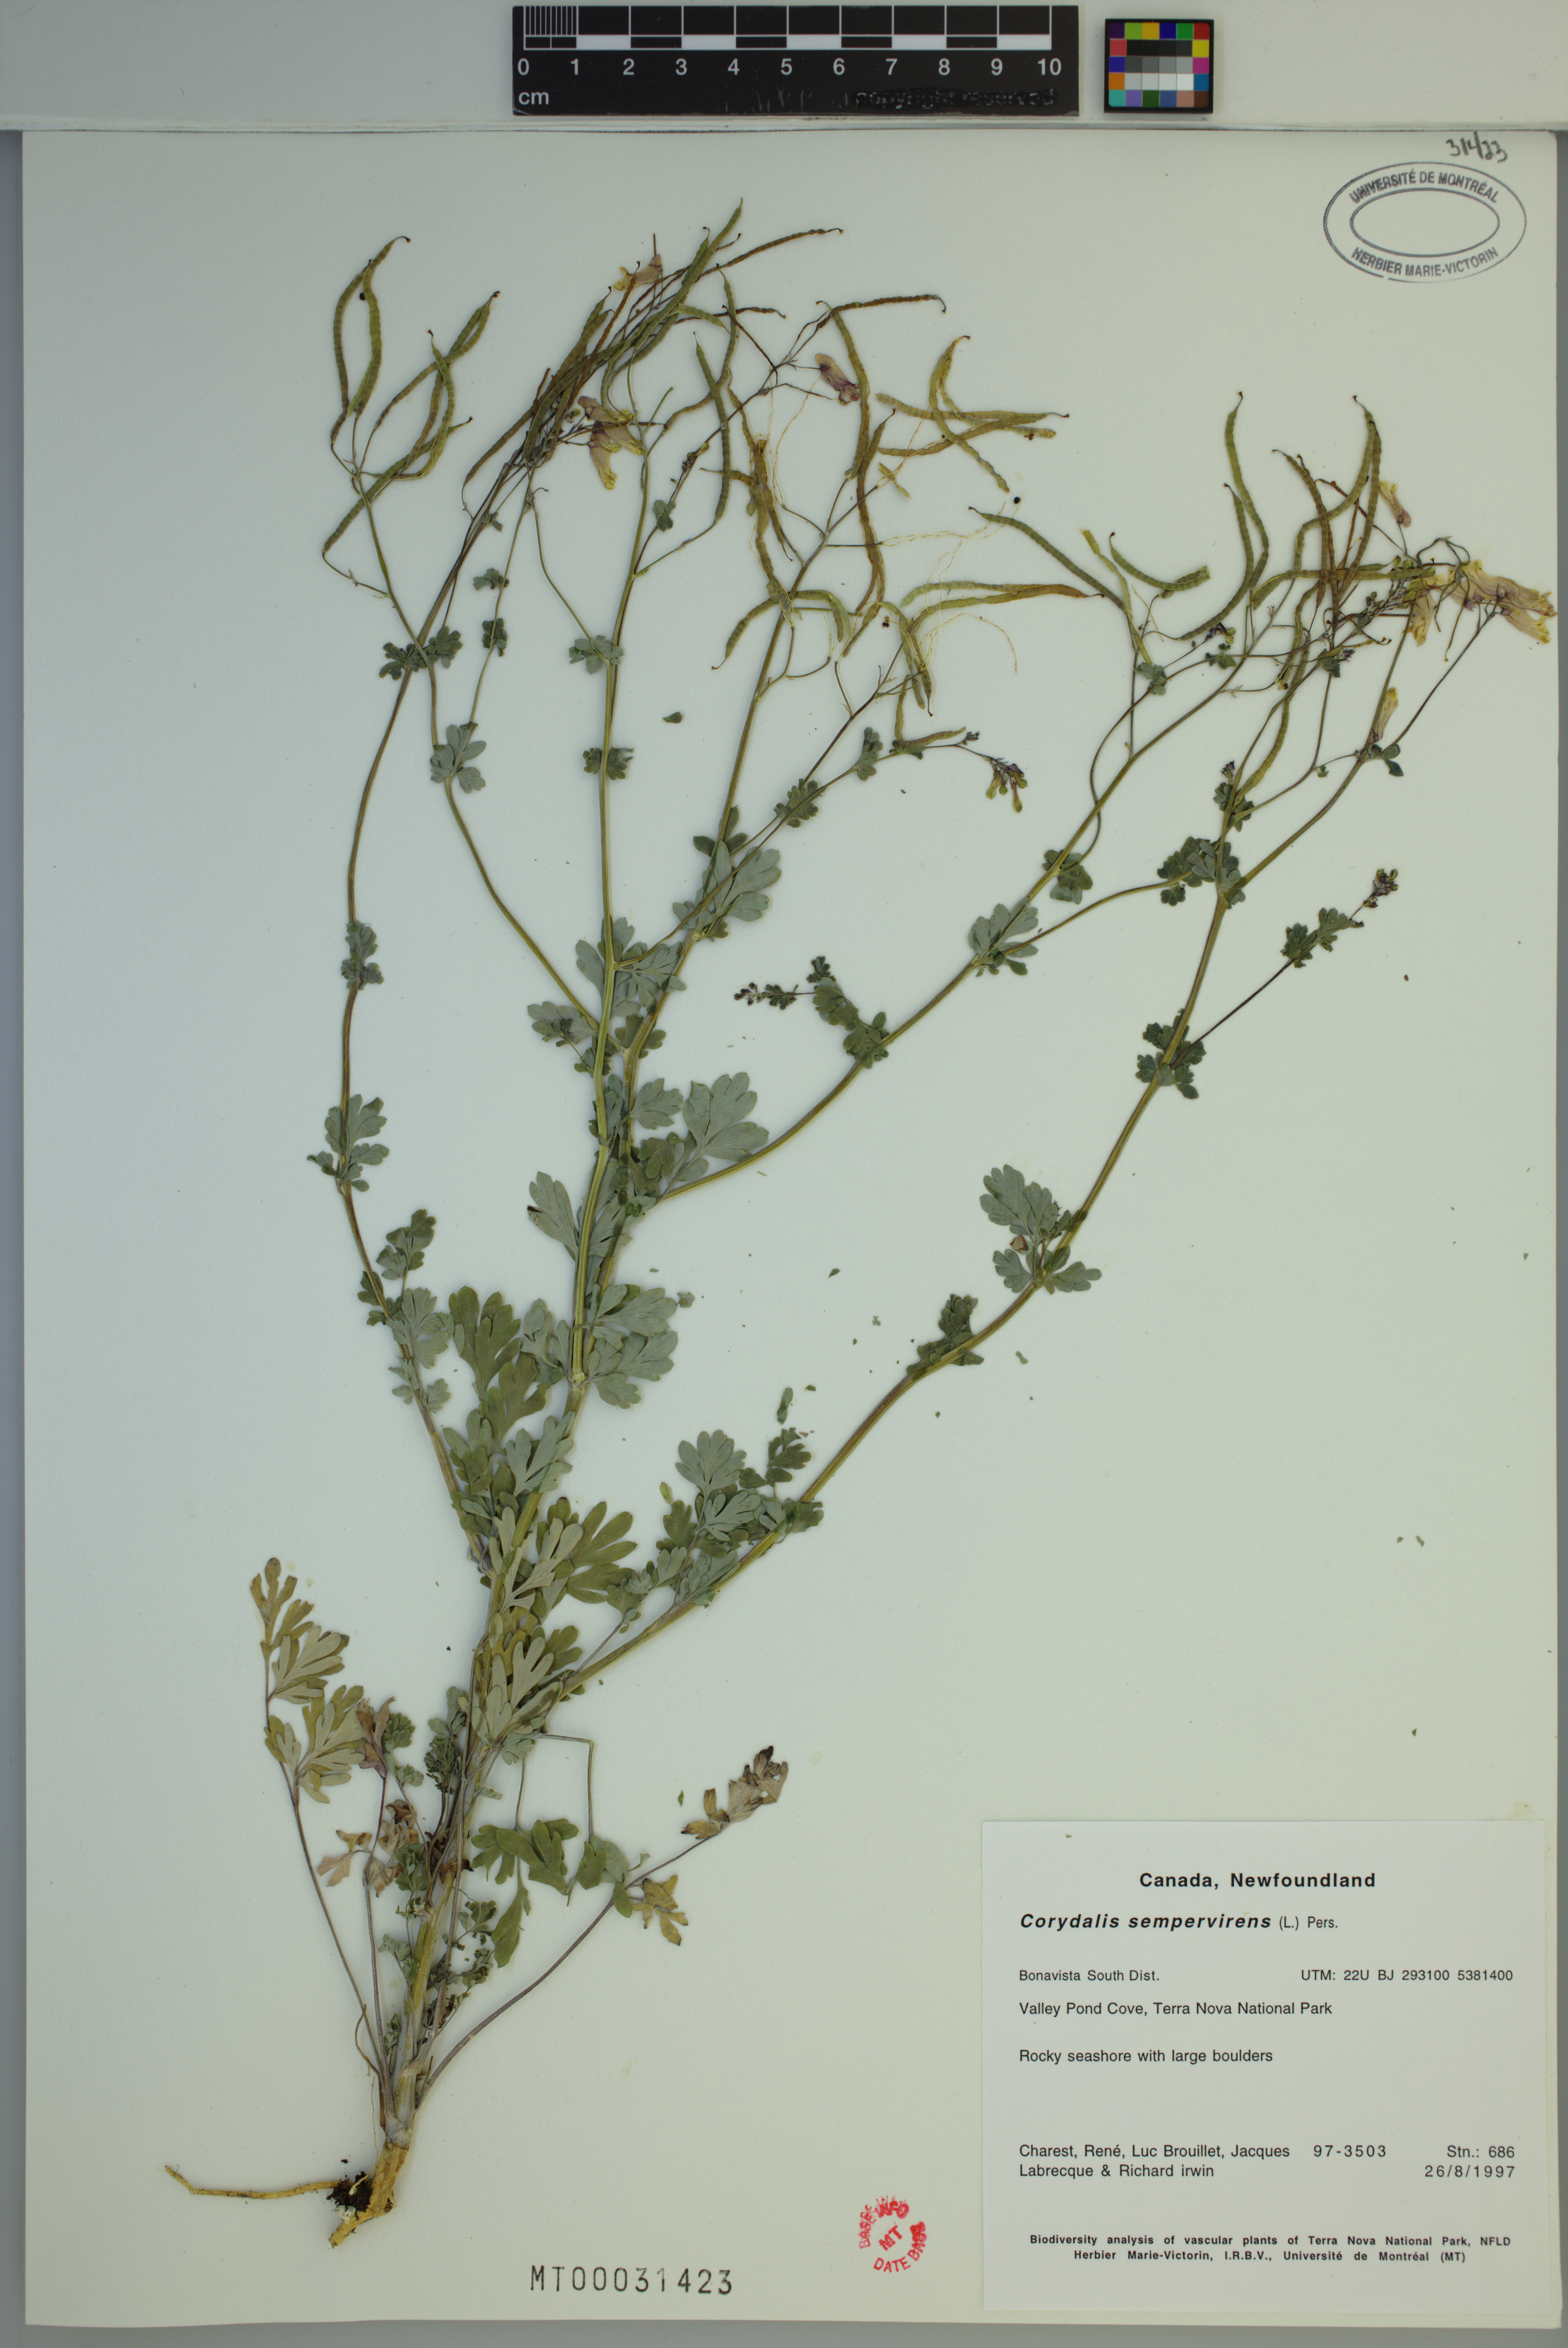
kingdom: Plantae
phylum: Tracheophyta
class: Magnoliopsida
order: Ranunculales
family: Papaveraceae
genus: Capnoides
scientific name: Capnoides sempervirens
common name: Rock harlequin
